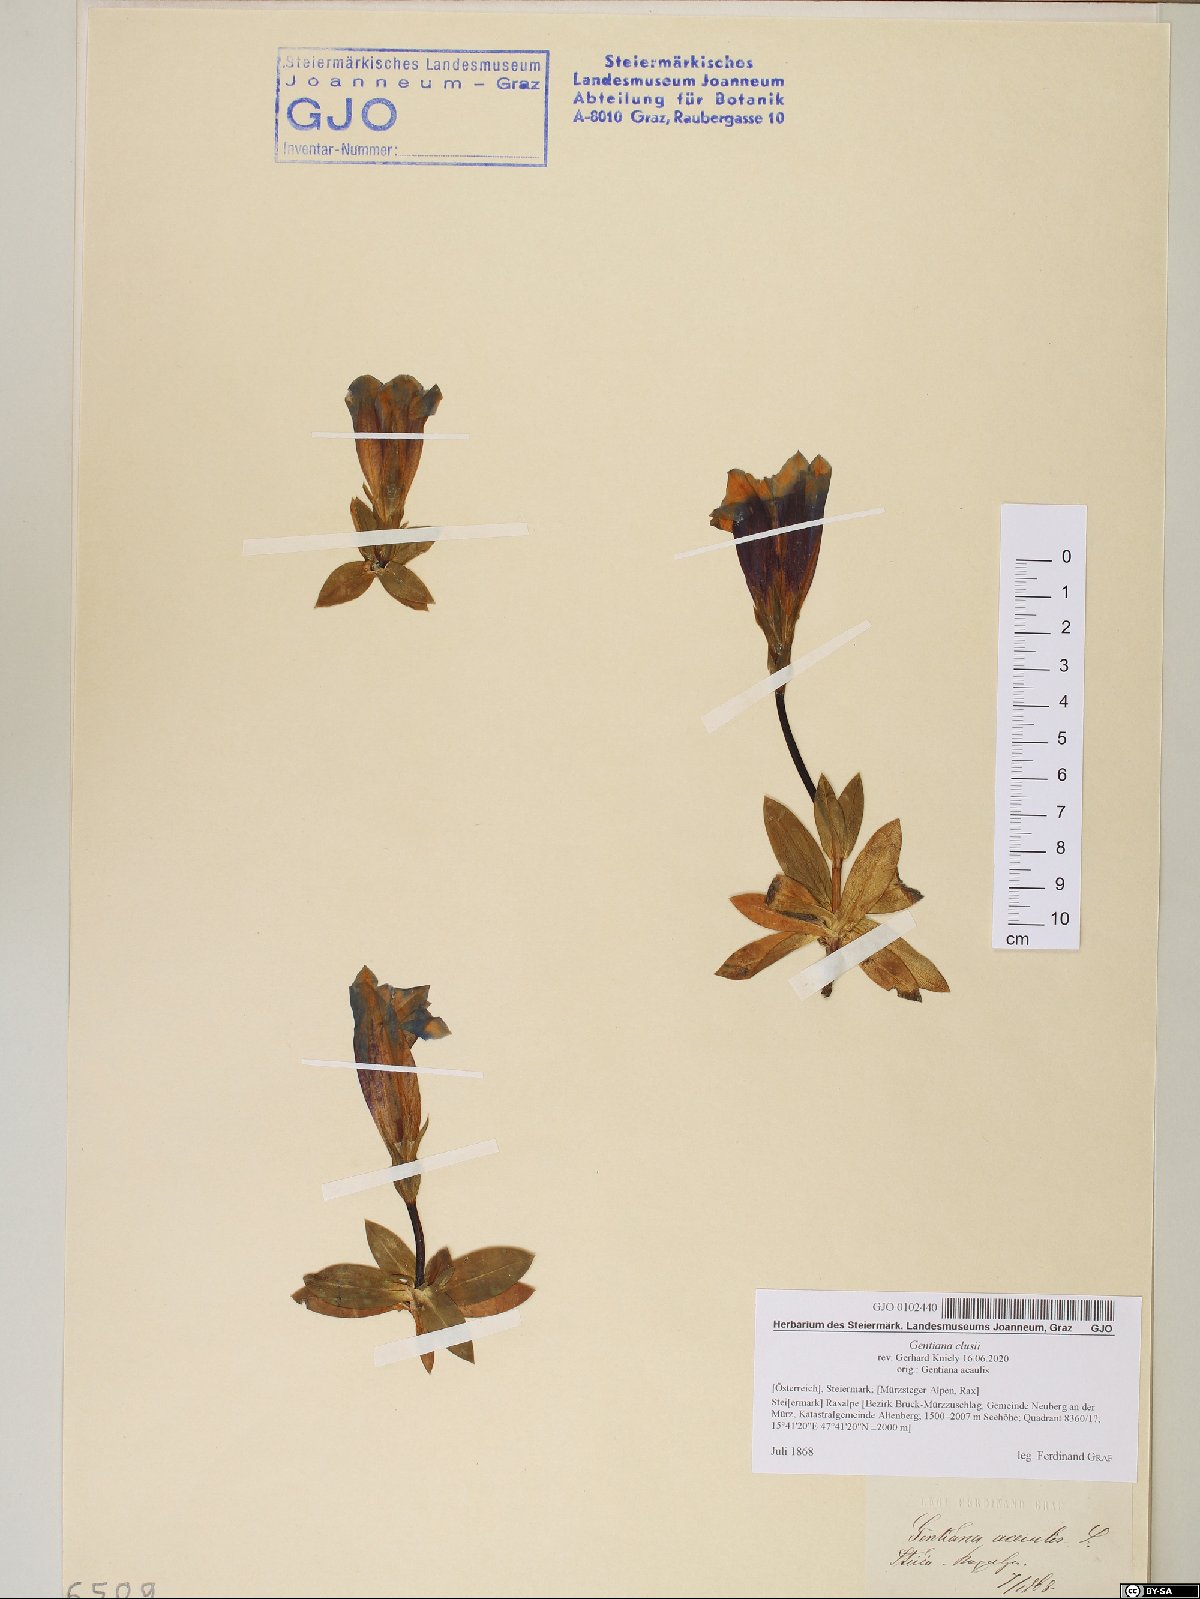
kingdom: Plantae
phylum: Tracheophyta
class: Magnoliopsida
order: Gentianales
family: Gentianaceae
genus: Gentiana
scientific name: Gentiana clusii
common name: Trumpet gentian
